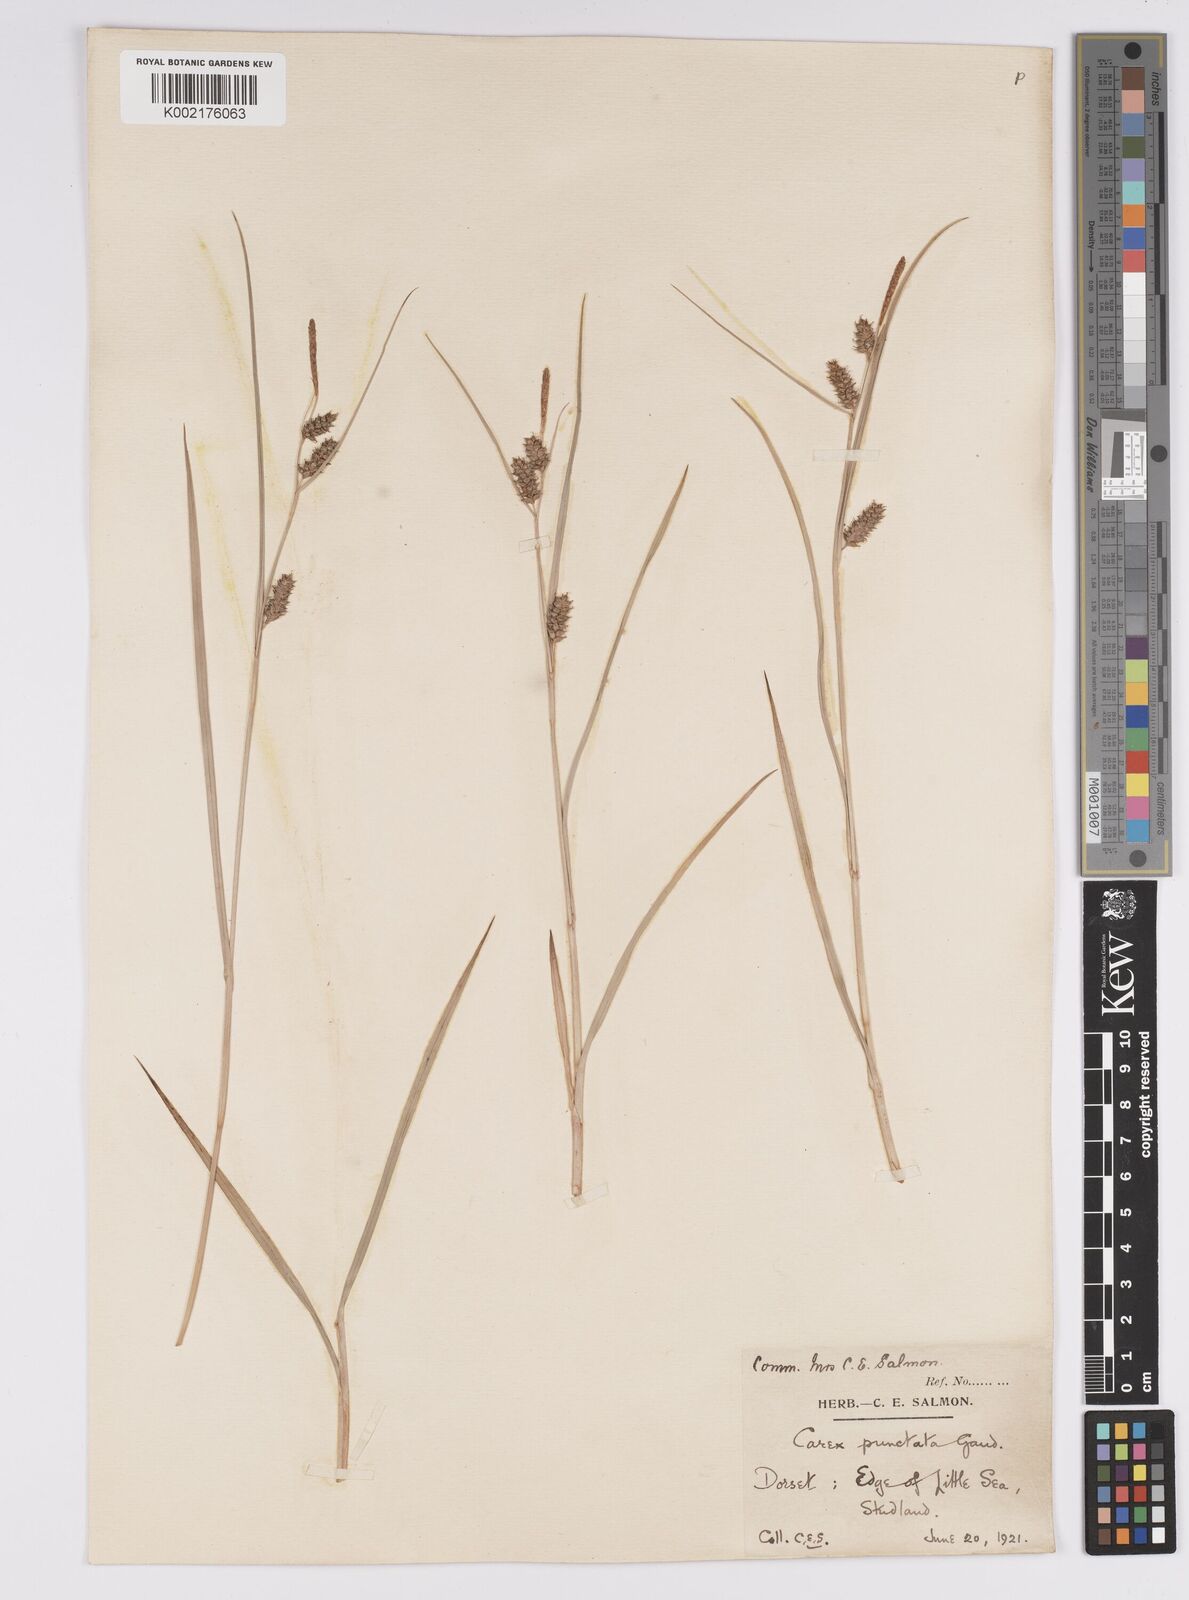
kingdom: Plantae
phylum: Tracheophyta
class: Liliopsida
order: Poales
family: Cyperaceae
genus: Carex
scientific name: Carex punctata
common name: Dotted sedge
